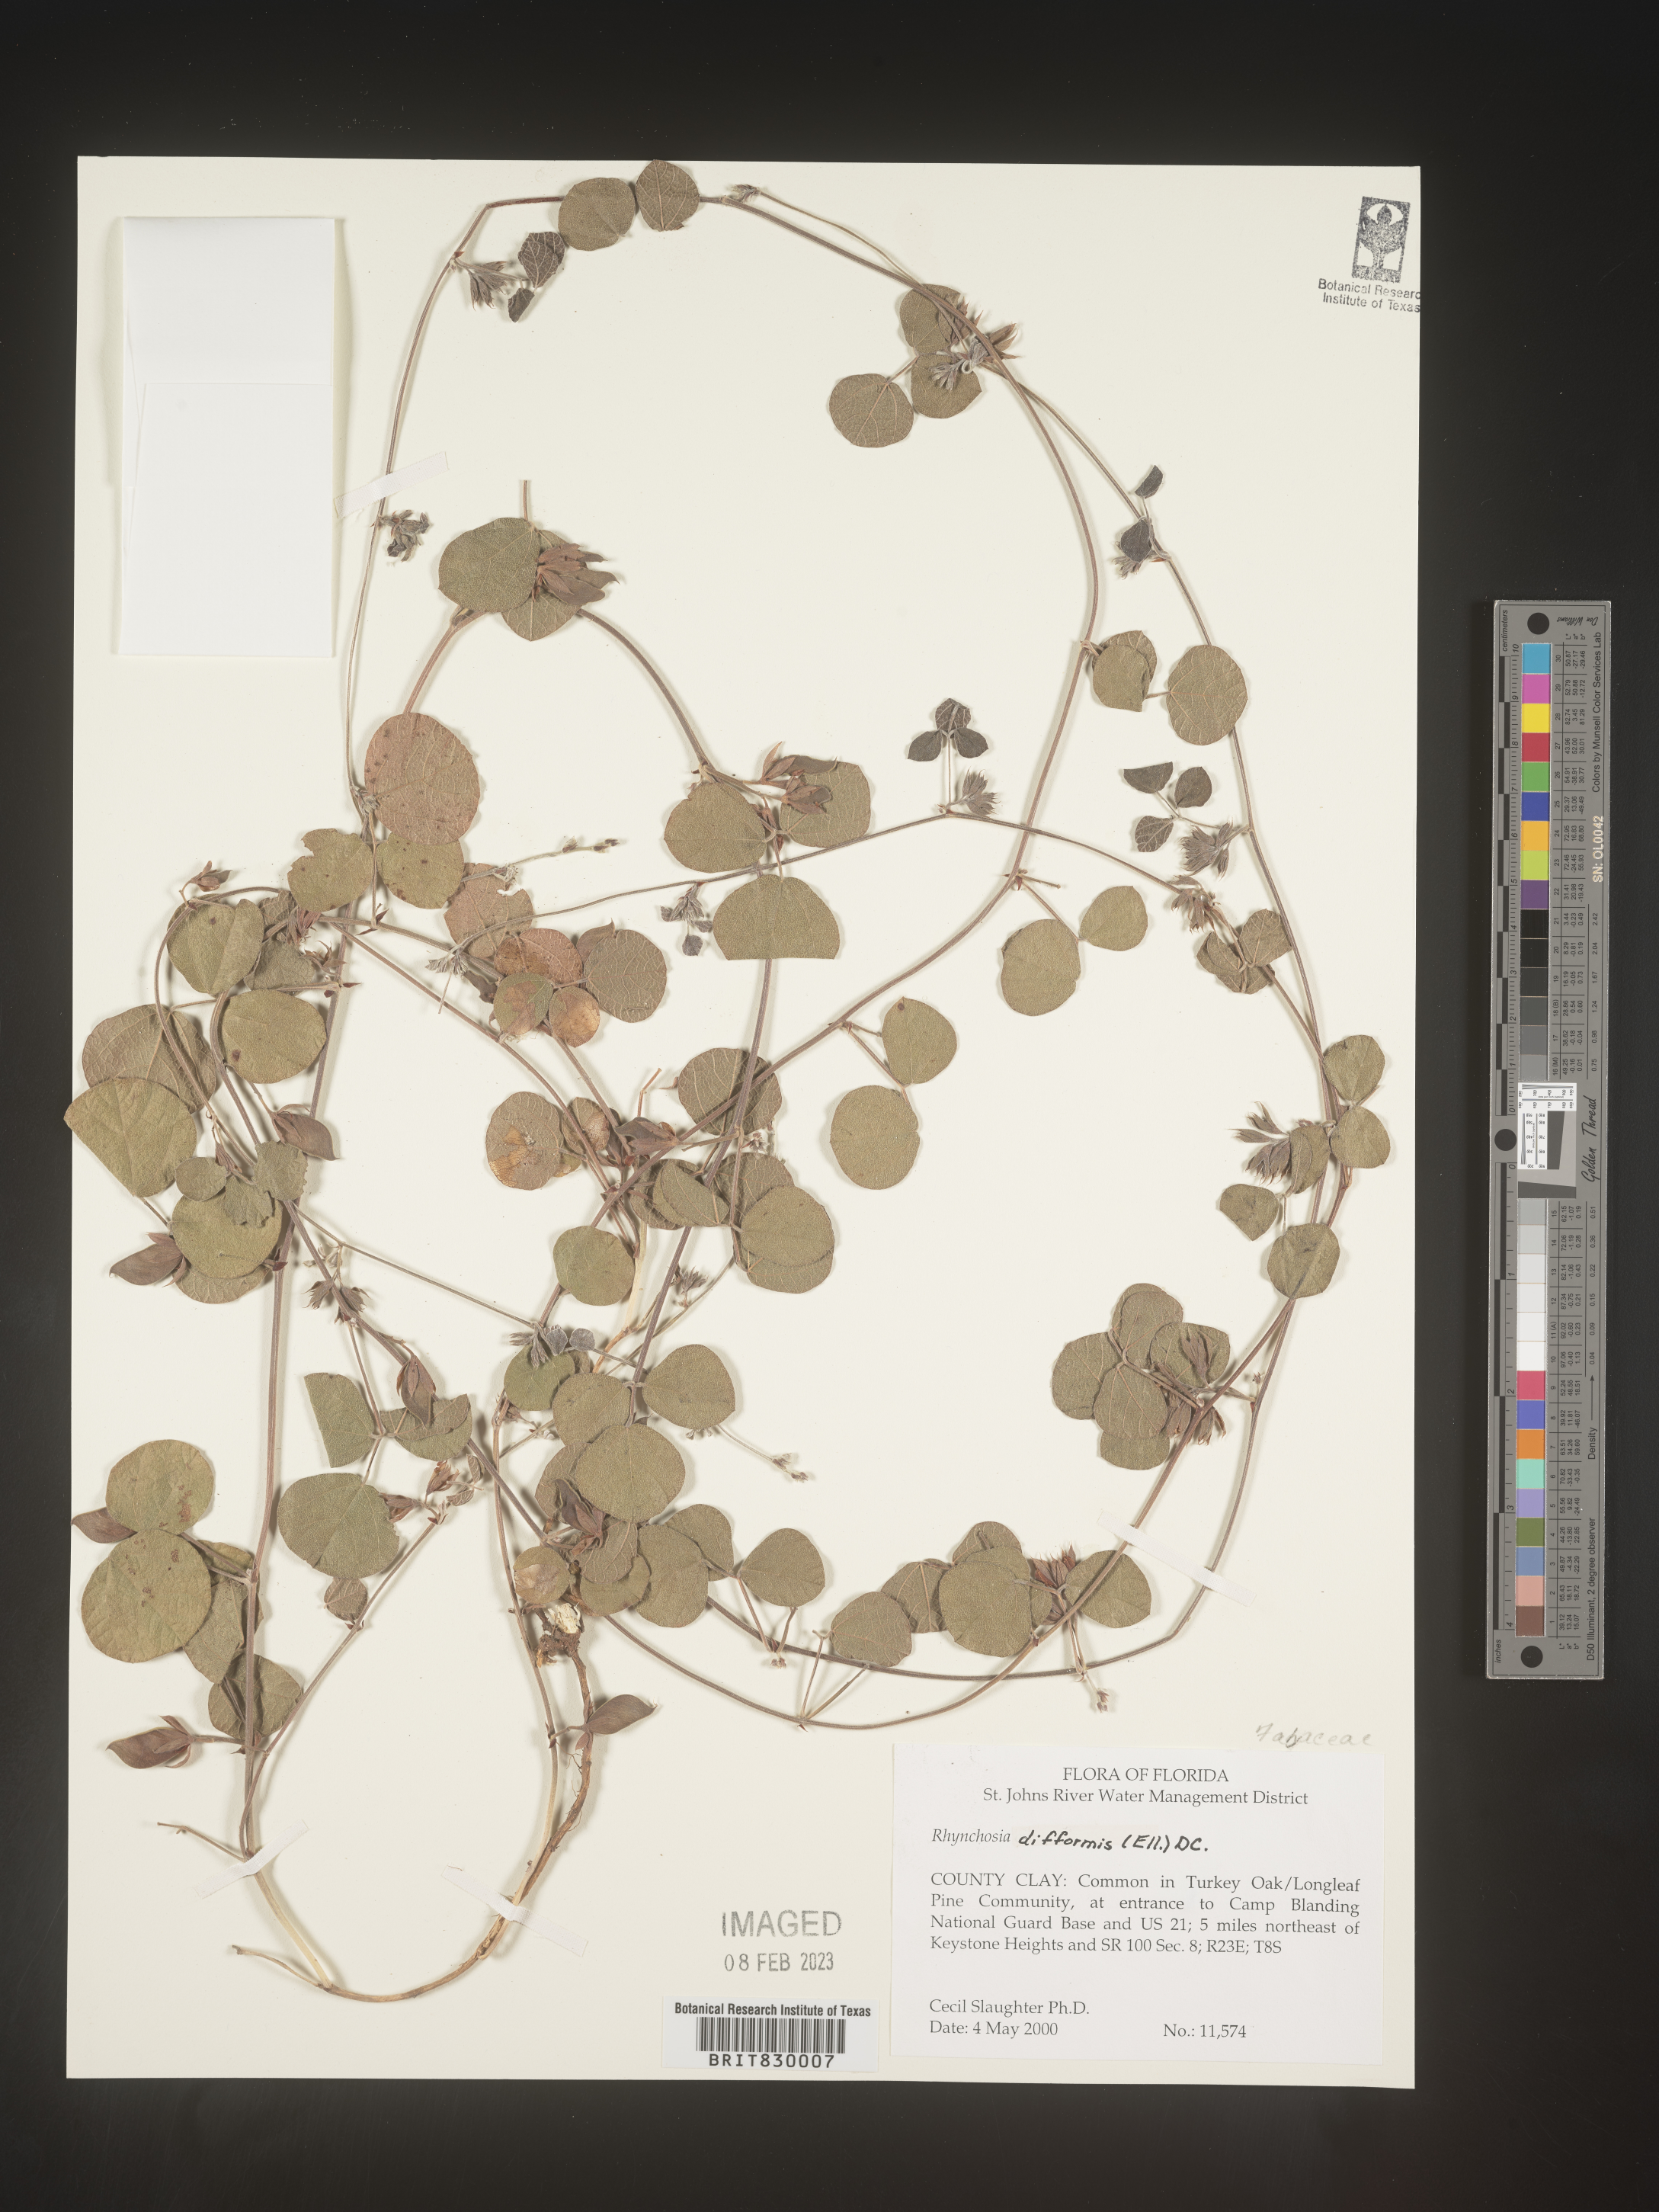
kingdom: Plantae
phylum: Tracheophyta
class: Magnoliopsida
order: Fabales
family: Fabaceae
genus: Rhynchosia
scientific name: Rhynchosia difformis
